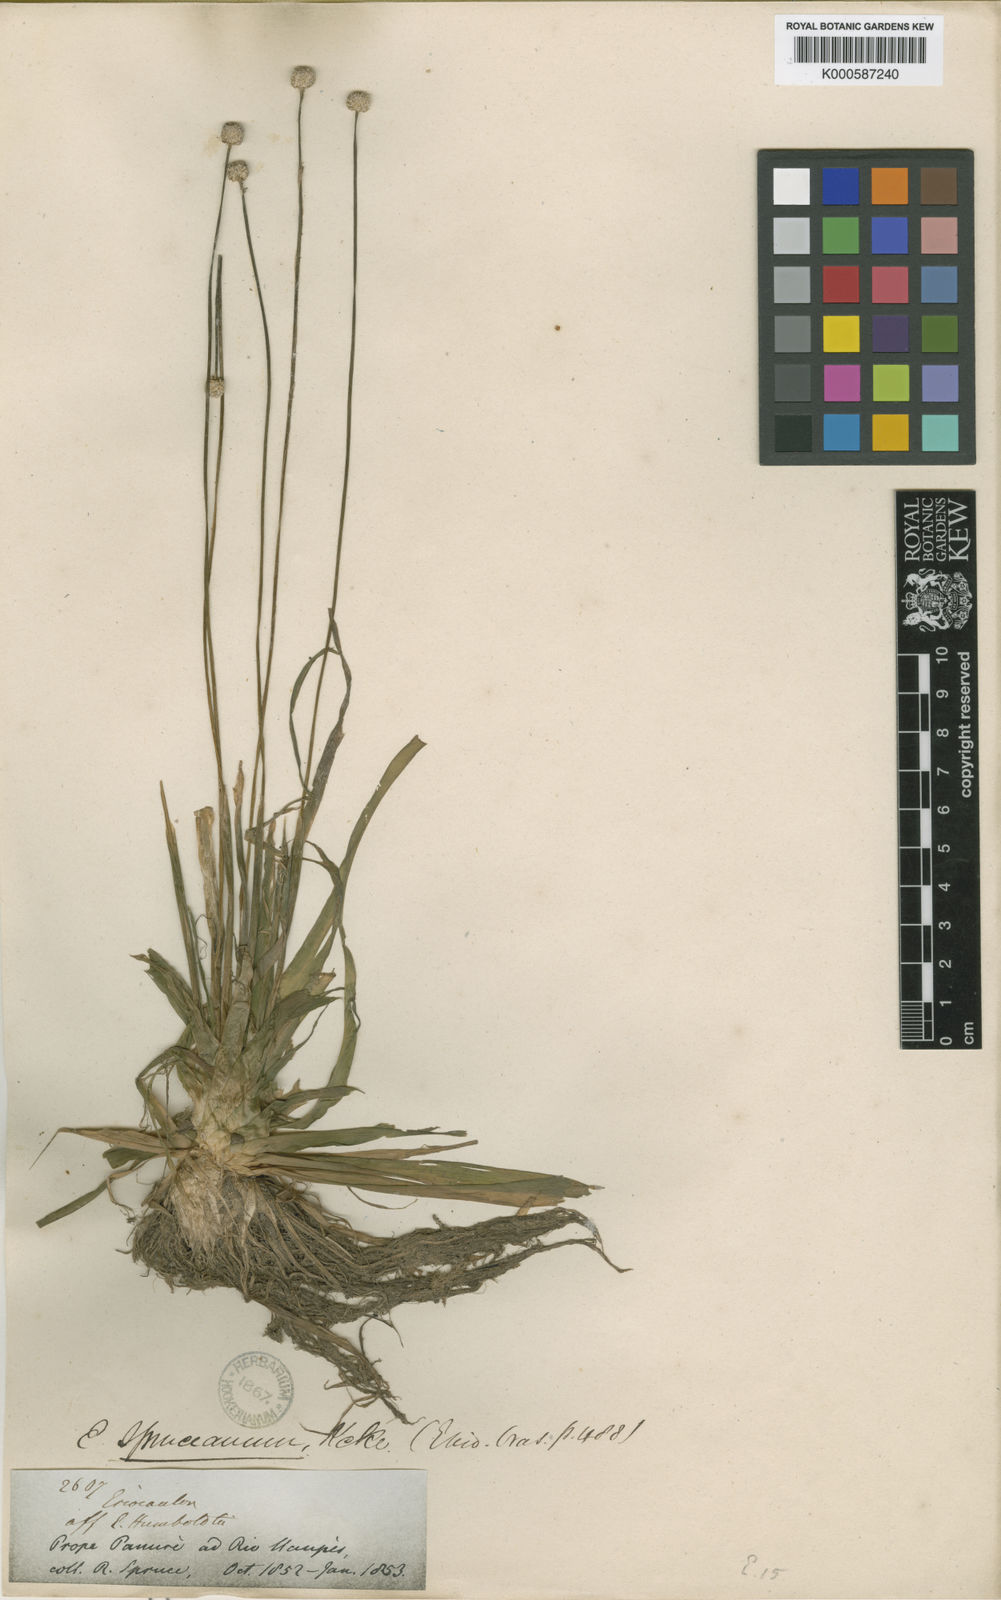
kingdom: Plantae
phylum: Tracheophyta
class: Liliopsida
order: Poales
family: Eriocaulaceae
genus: Eriocaulon
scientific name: Eriocaulon
